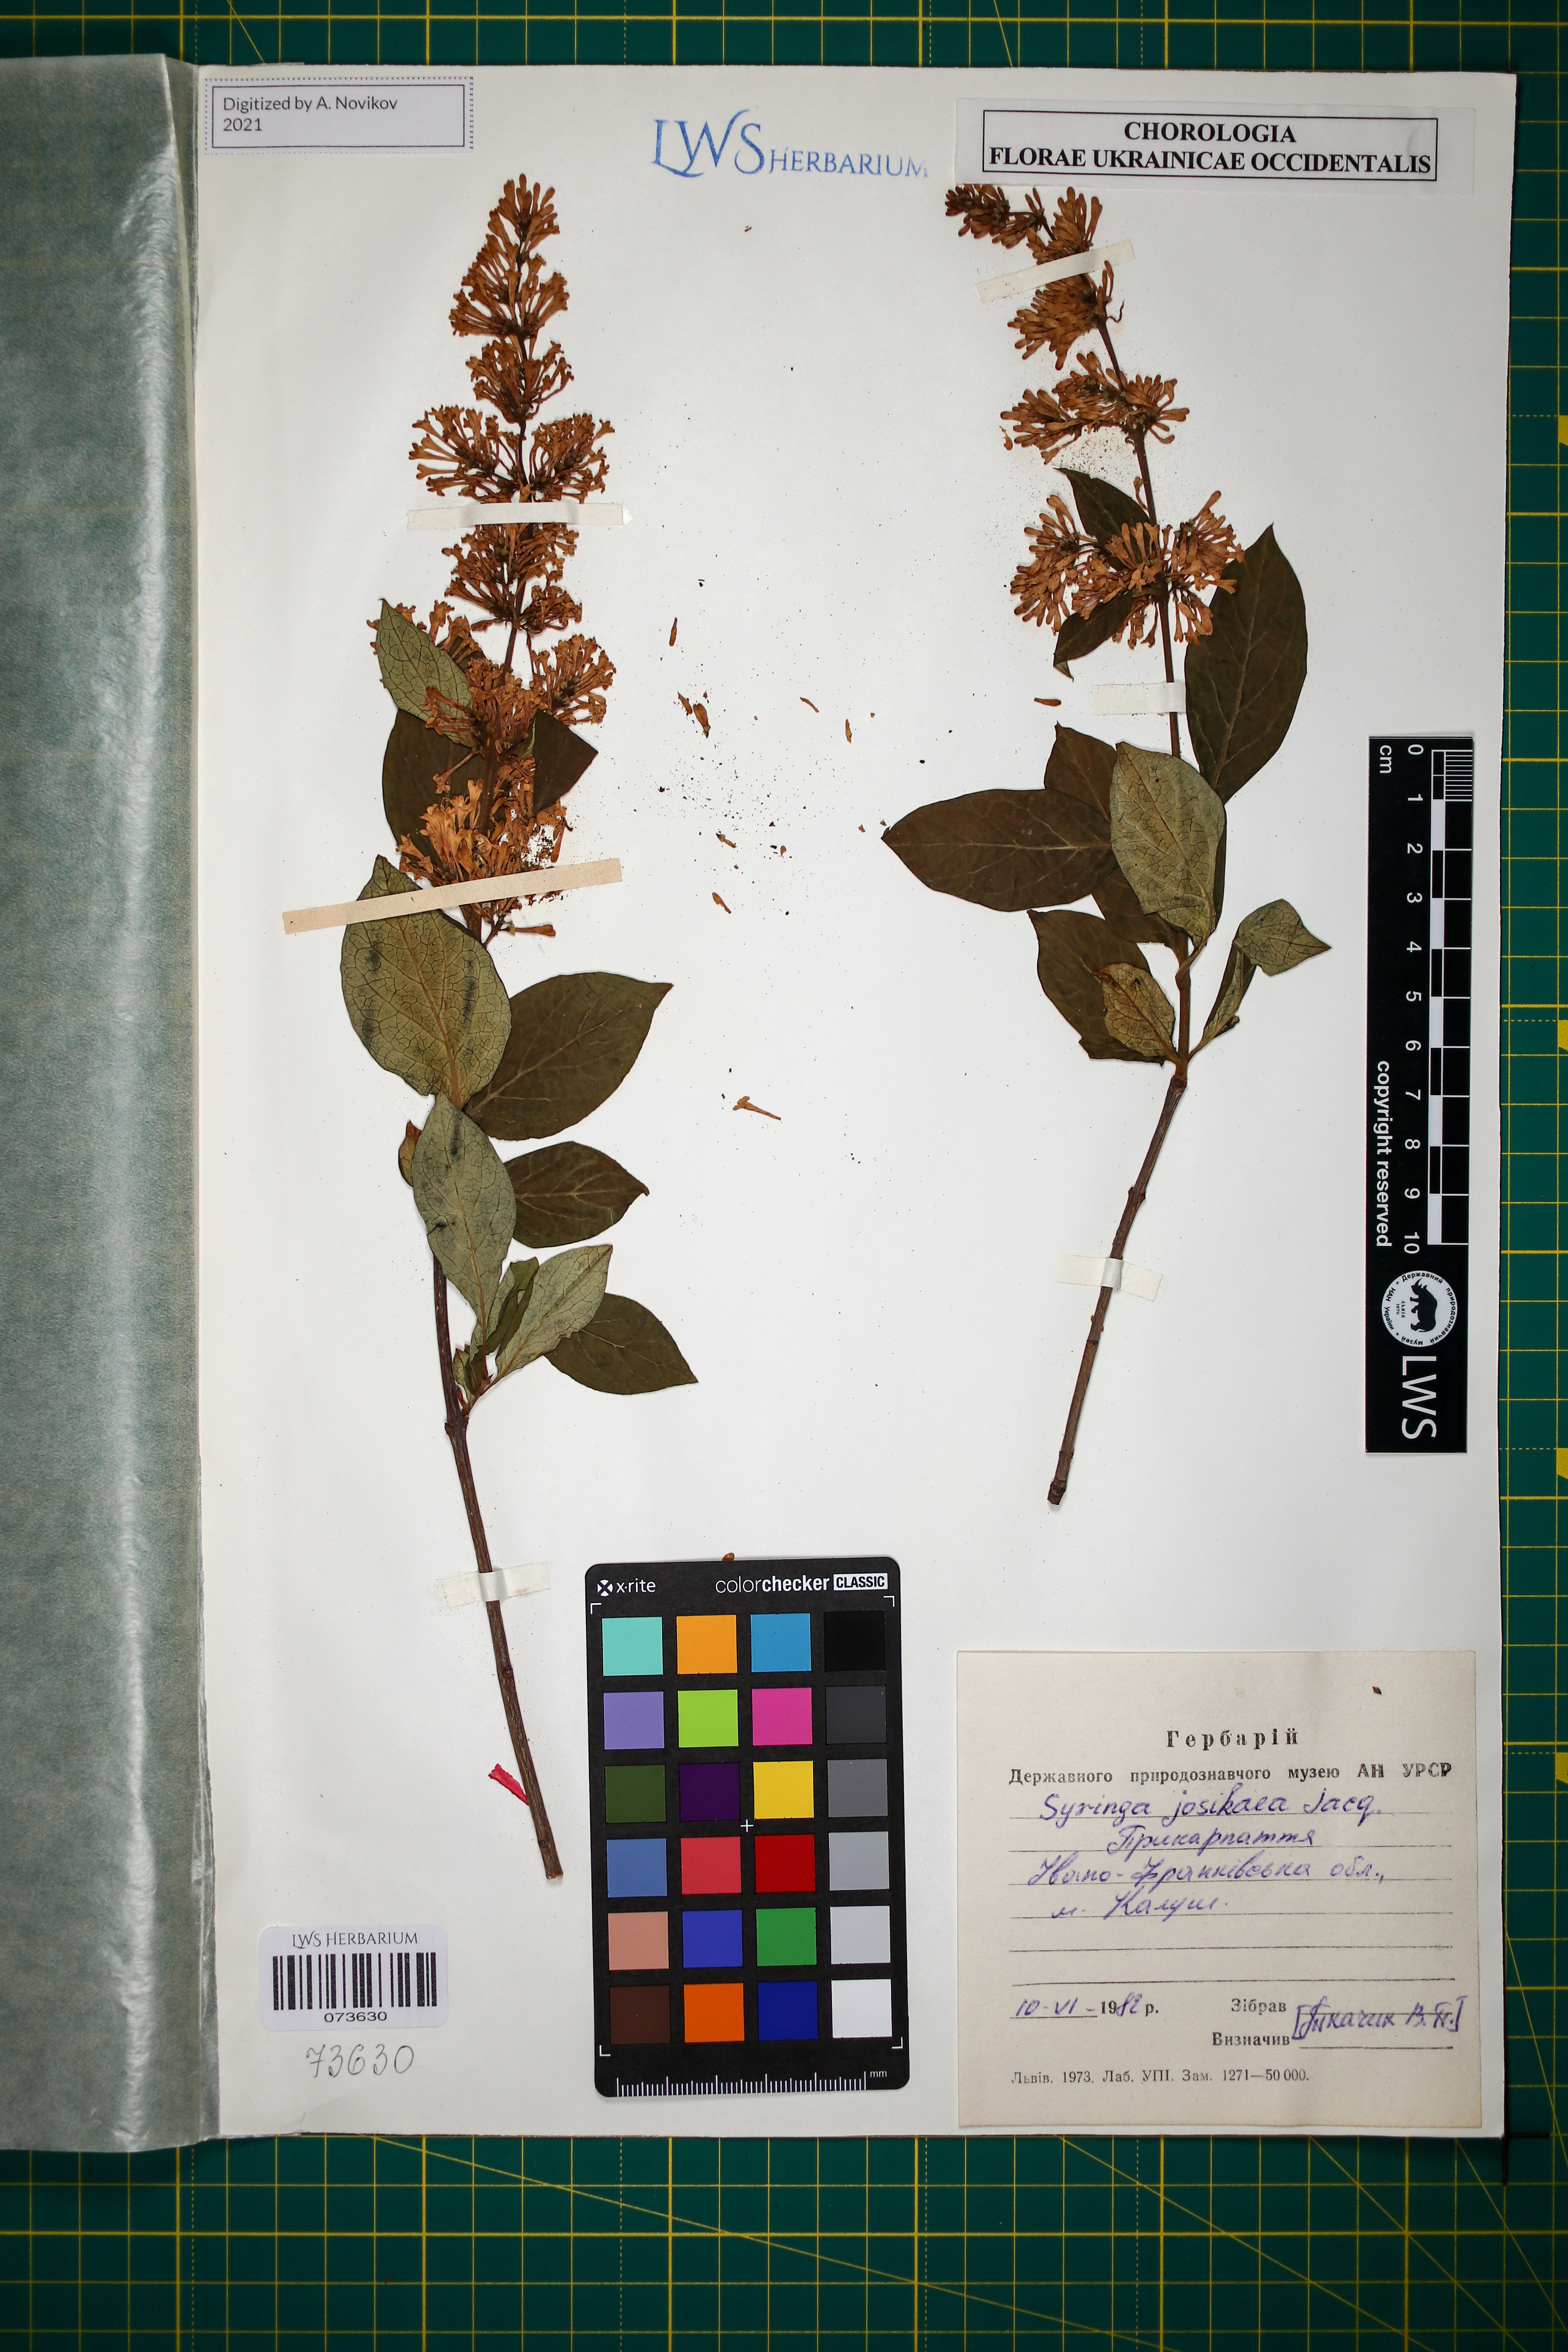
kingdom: Plantae
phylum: Tracheophyta
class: Magnoliopsida
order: Lamiales
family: Oleaceae
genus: Syringa
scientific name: Syringa josikaea
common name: Hungarian lilac
